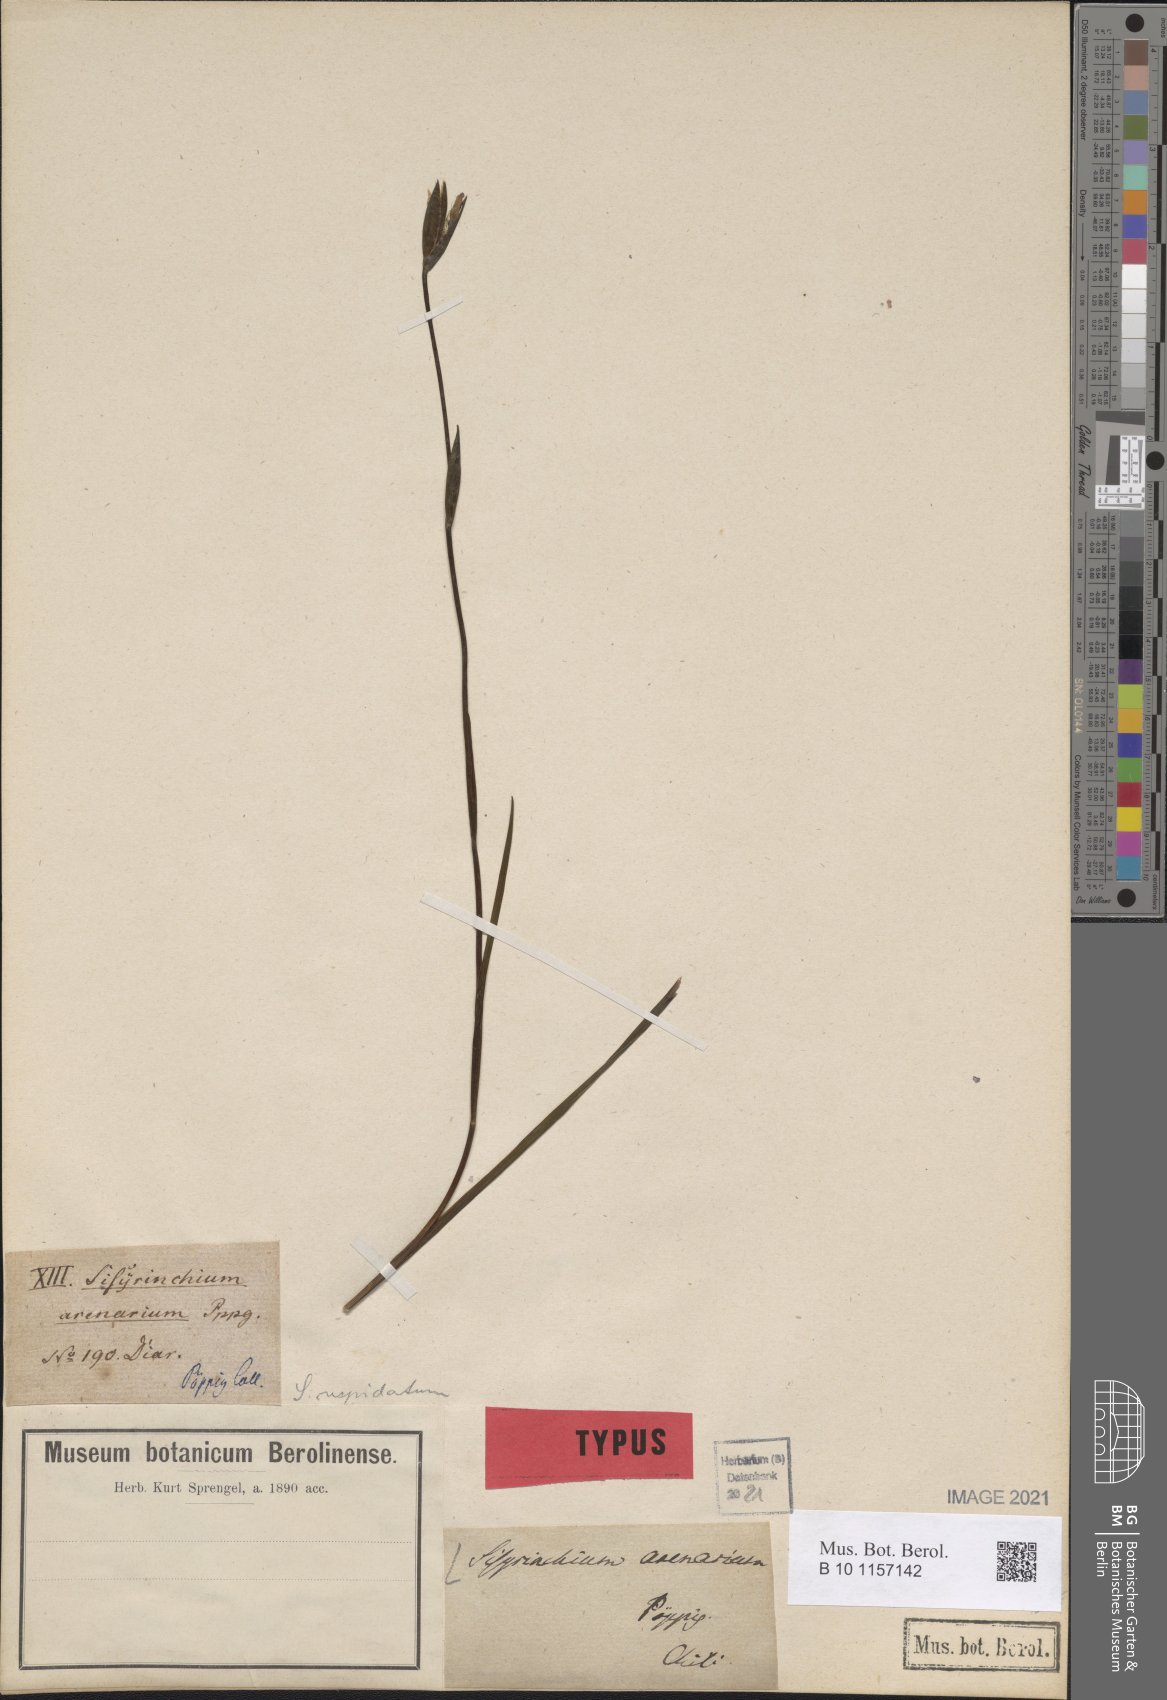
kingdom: Plantae
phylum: Tracheophyta
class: Liliopsida
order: Asparagales
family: Iridaceae
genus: Sisyrinchium
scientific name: Sisyrinchium arenarium
